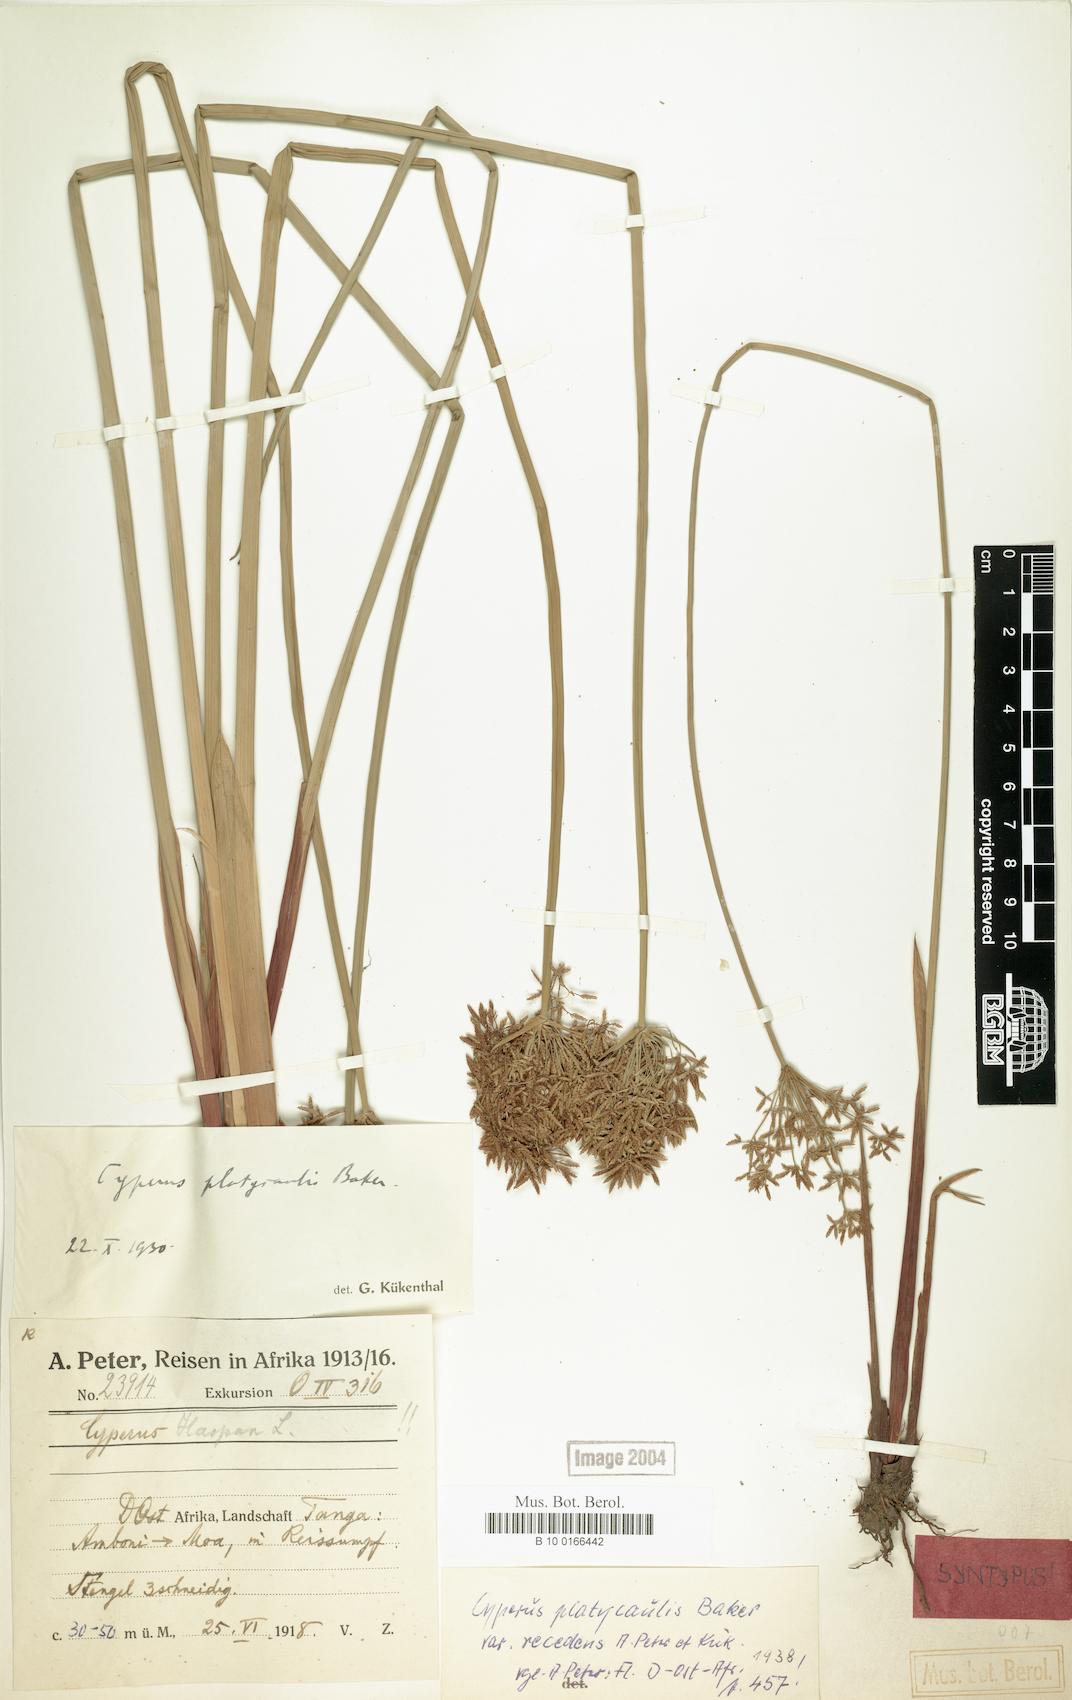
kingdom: Plantae
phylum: Tracheophyta
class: Liliopsida
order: Poales
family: Cyperaceae
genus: Cyperus
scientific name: Cyperus denudatus
